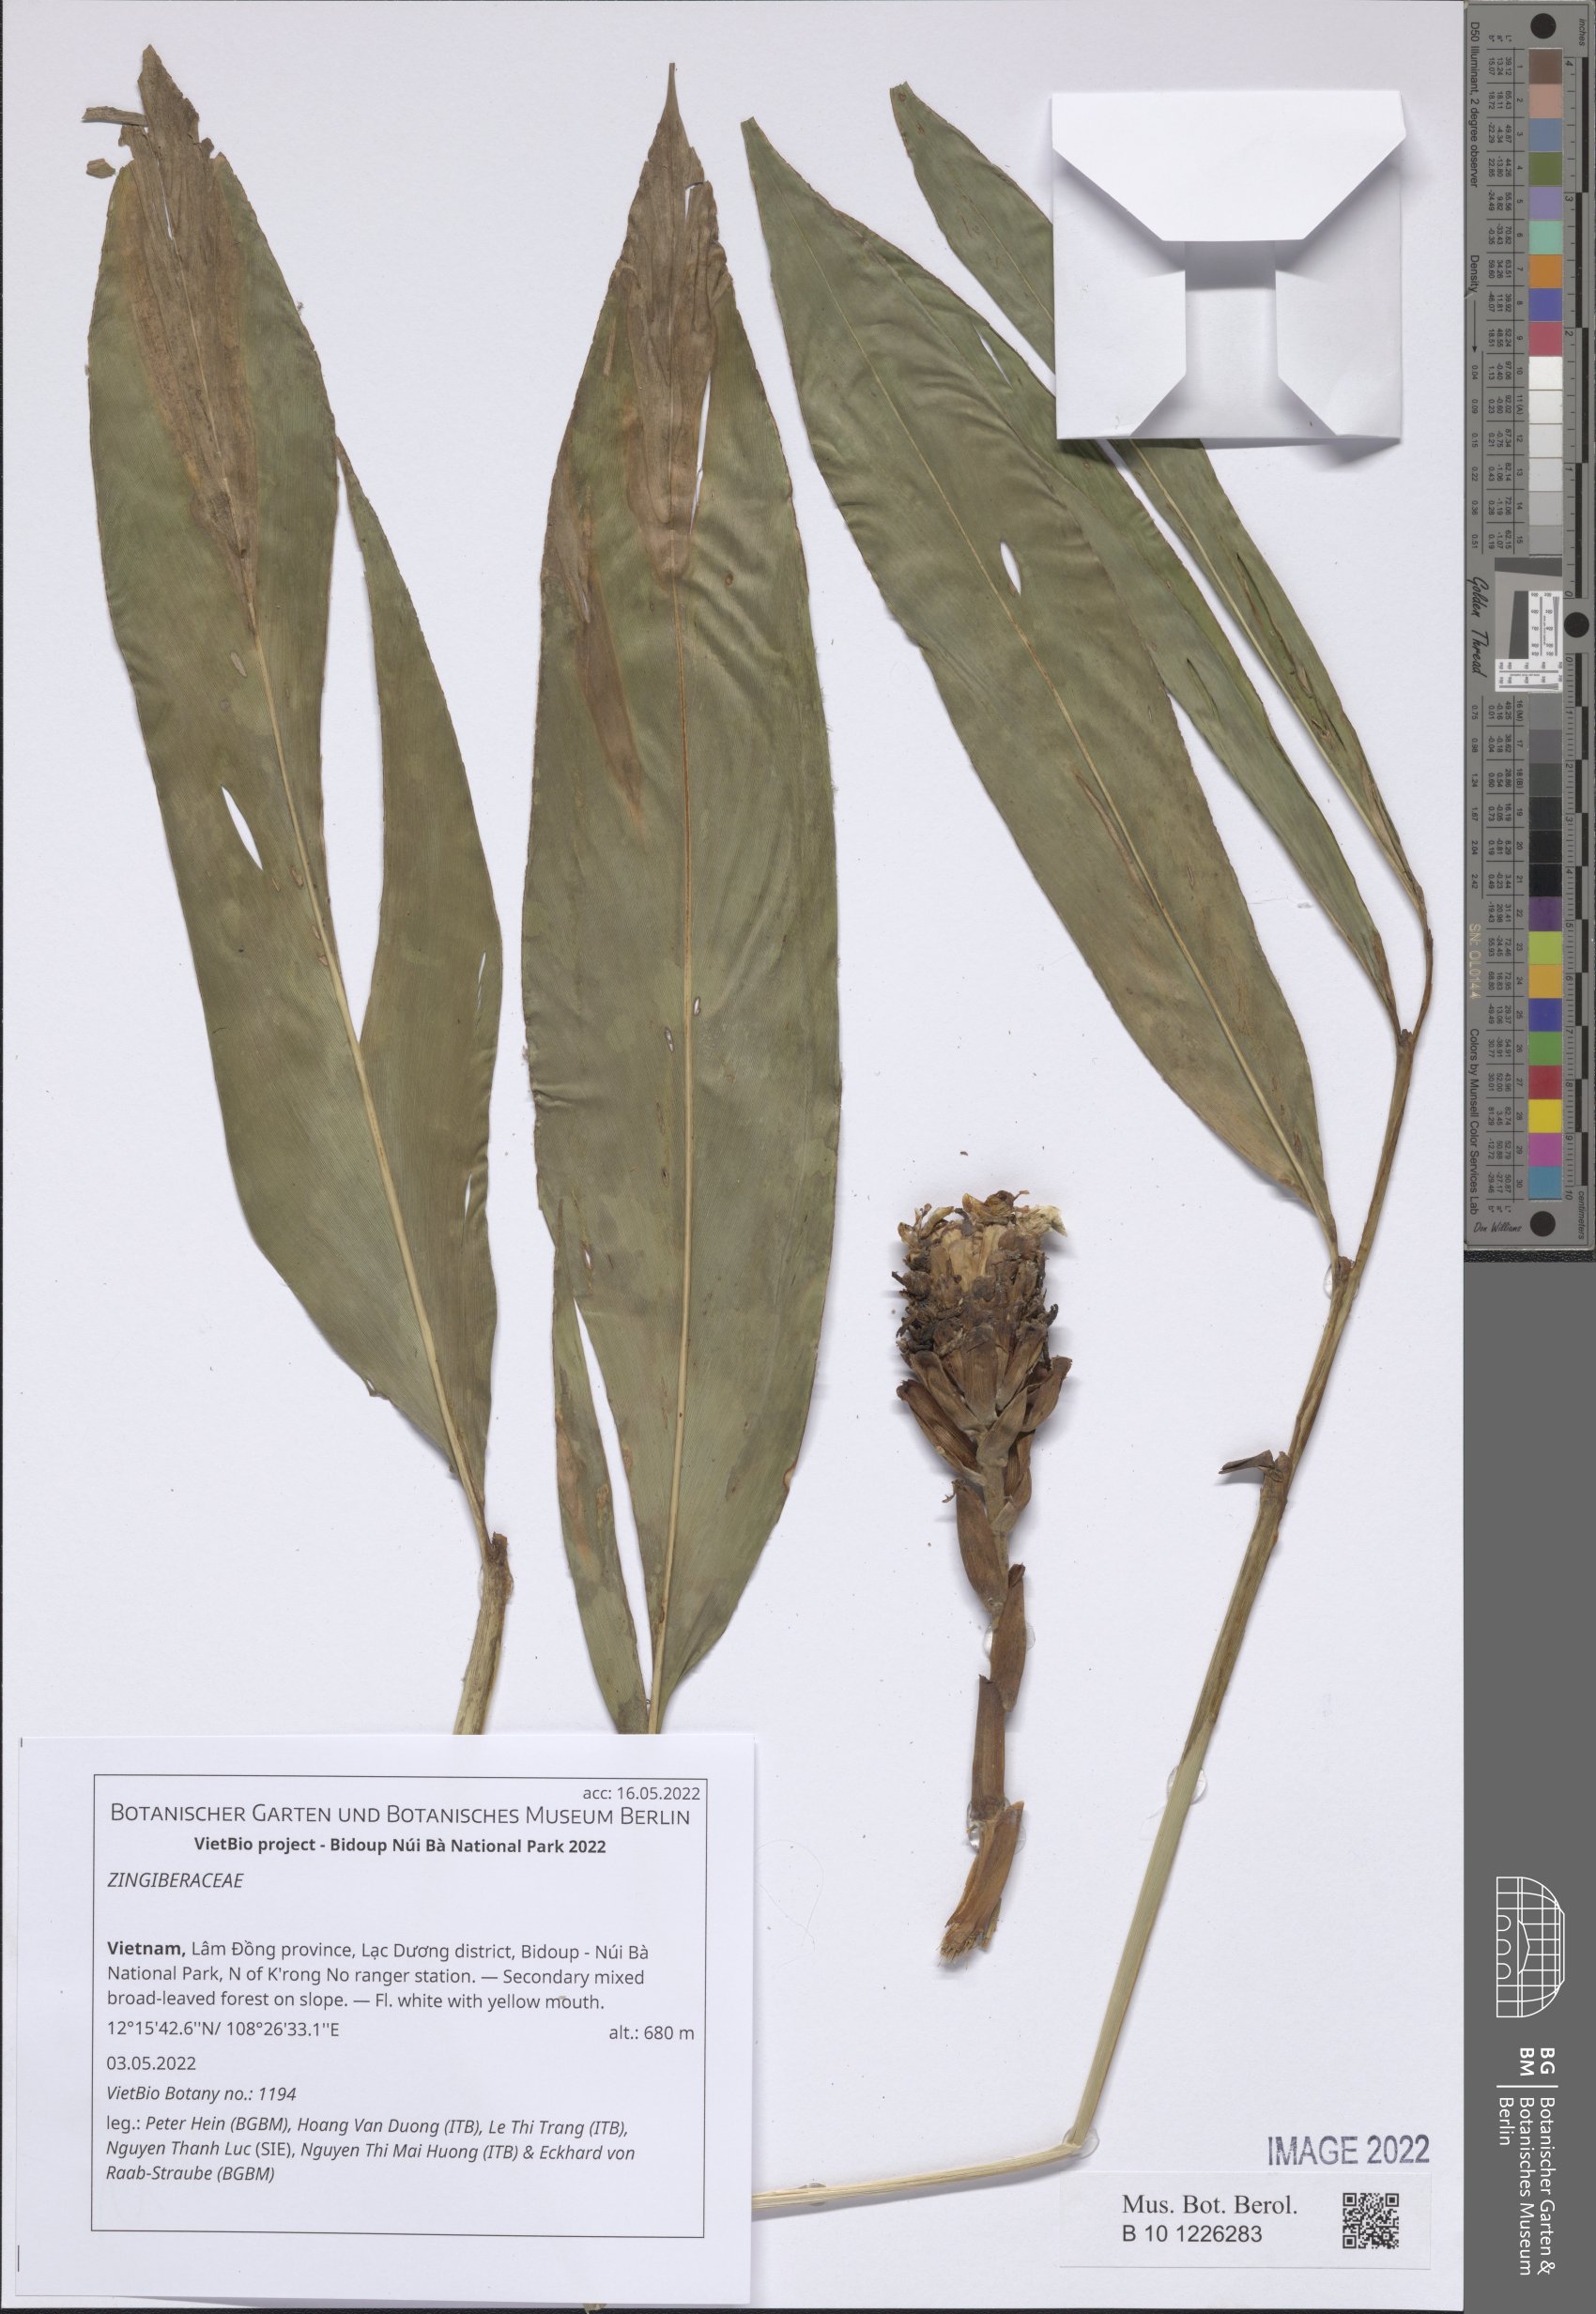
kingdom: Plantae
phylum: Tracheophyta
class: Liliopsida
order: Zingiberales
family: Zingiberaceae
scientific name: Zingiberaceae
